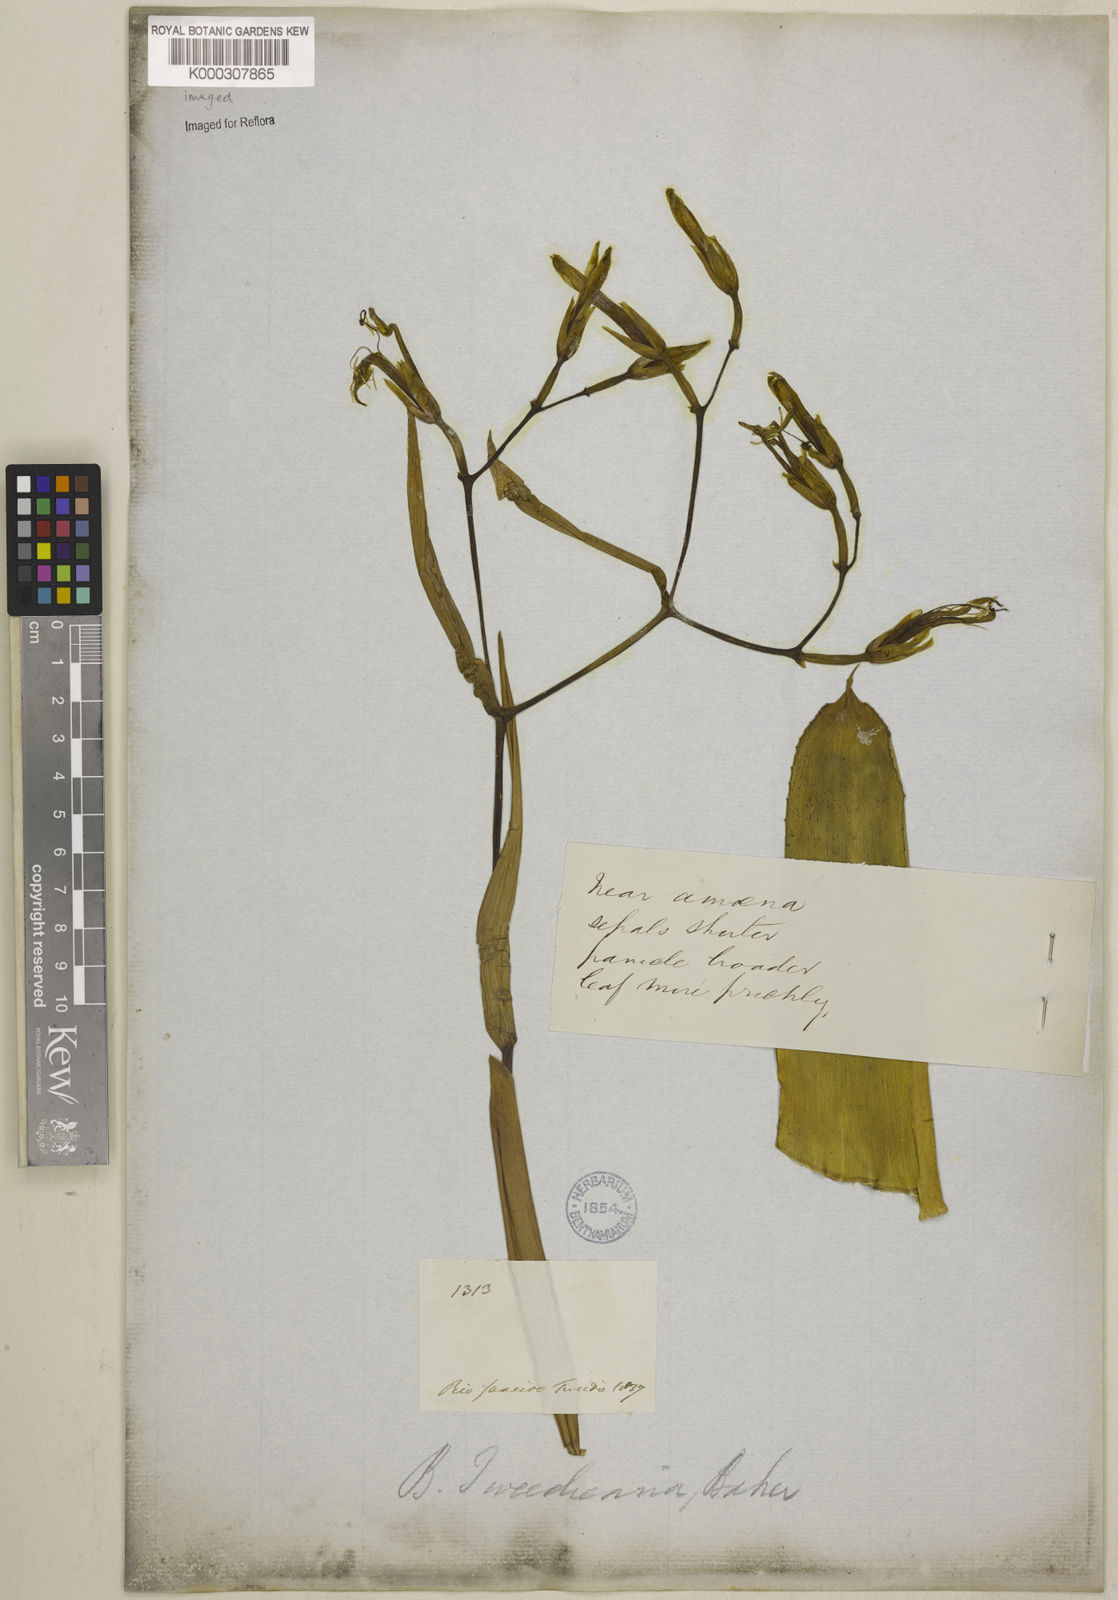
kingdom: Plantae
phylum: Tracheophyta
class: Liliopsida
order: Poales
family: Bromeliaceae
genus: Billbergia
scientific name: Billbergia tweedieana
